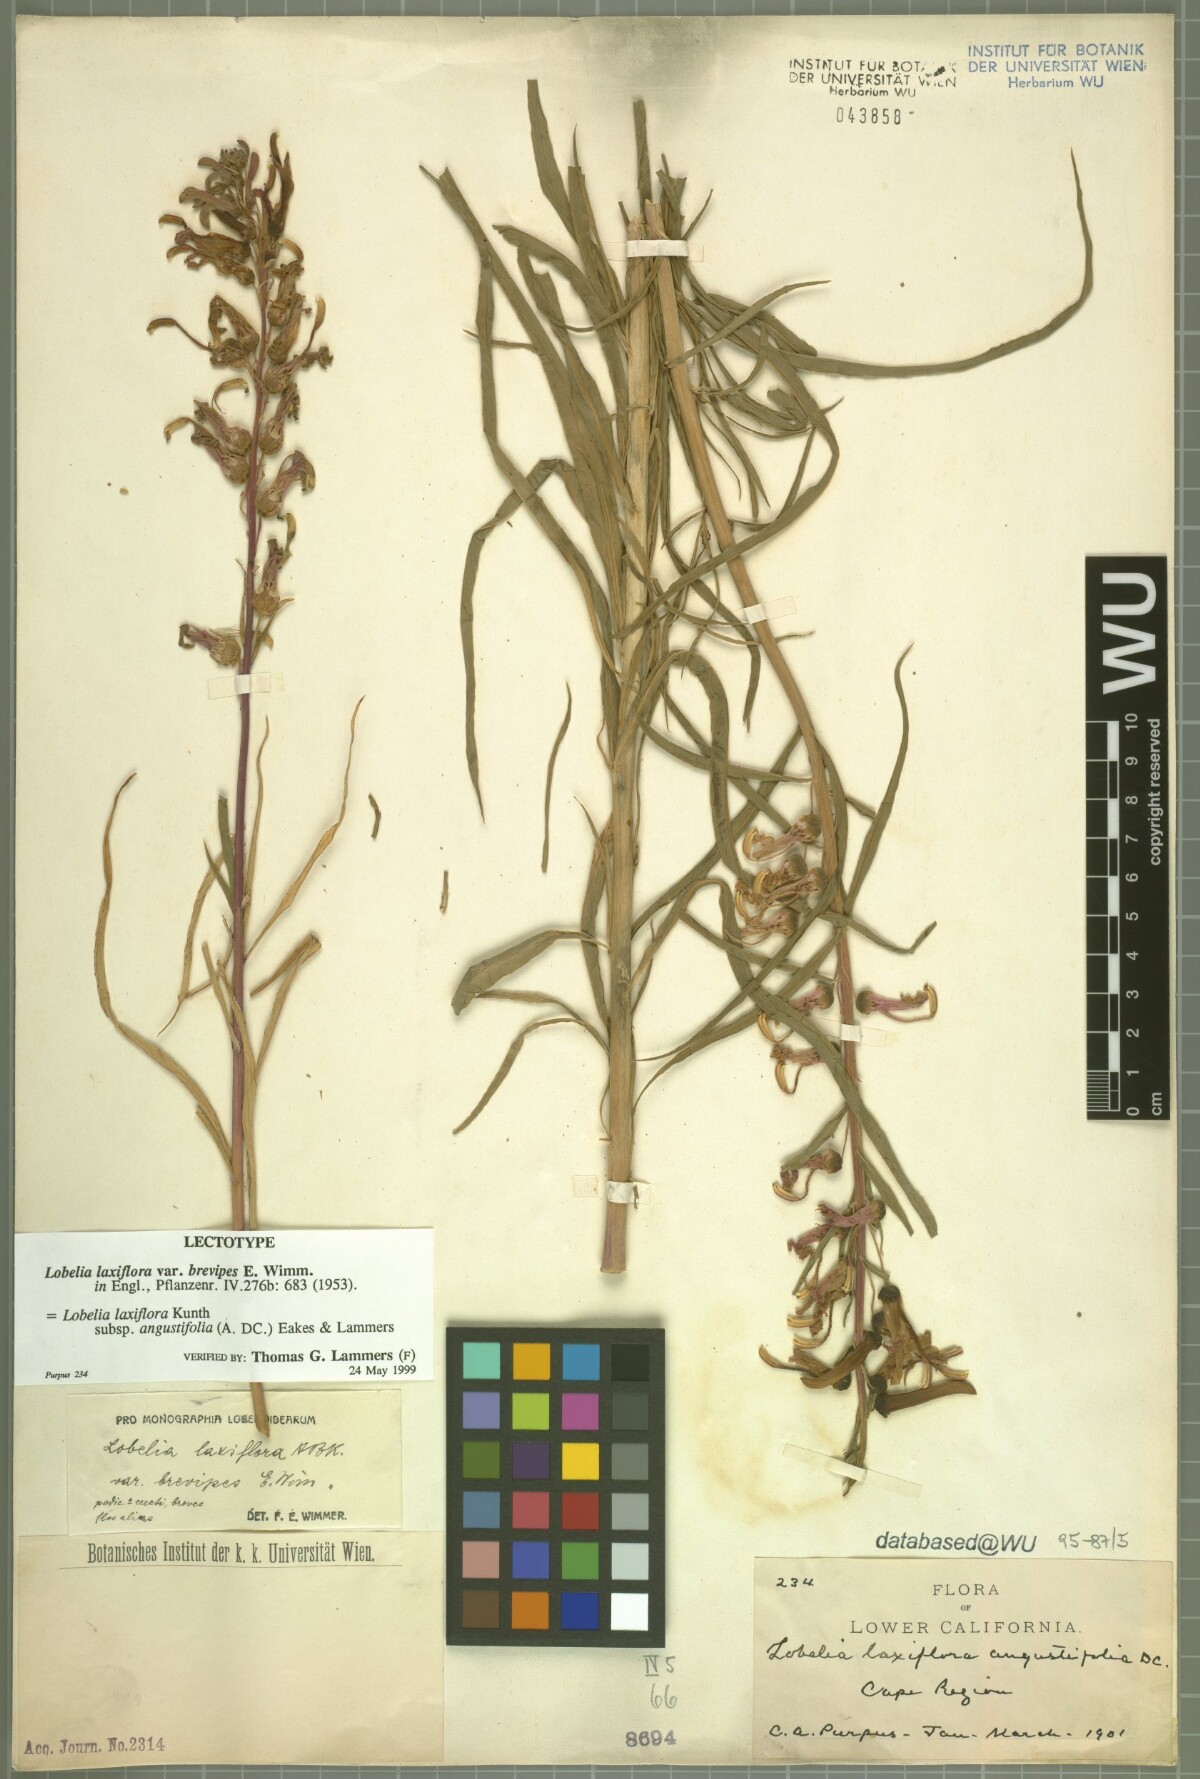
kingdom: Plantae
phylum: Tracheophyta
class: Magnoliopsida
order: Asterales
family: Campanulaceae
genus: Lobelia
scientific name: Lobelia laxiflora
